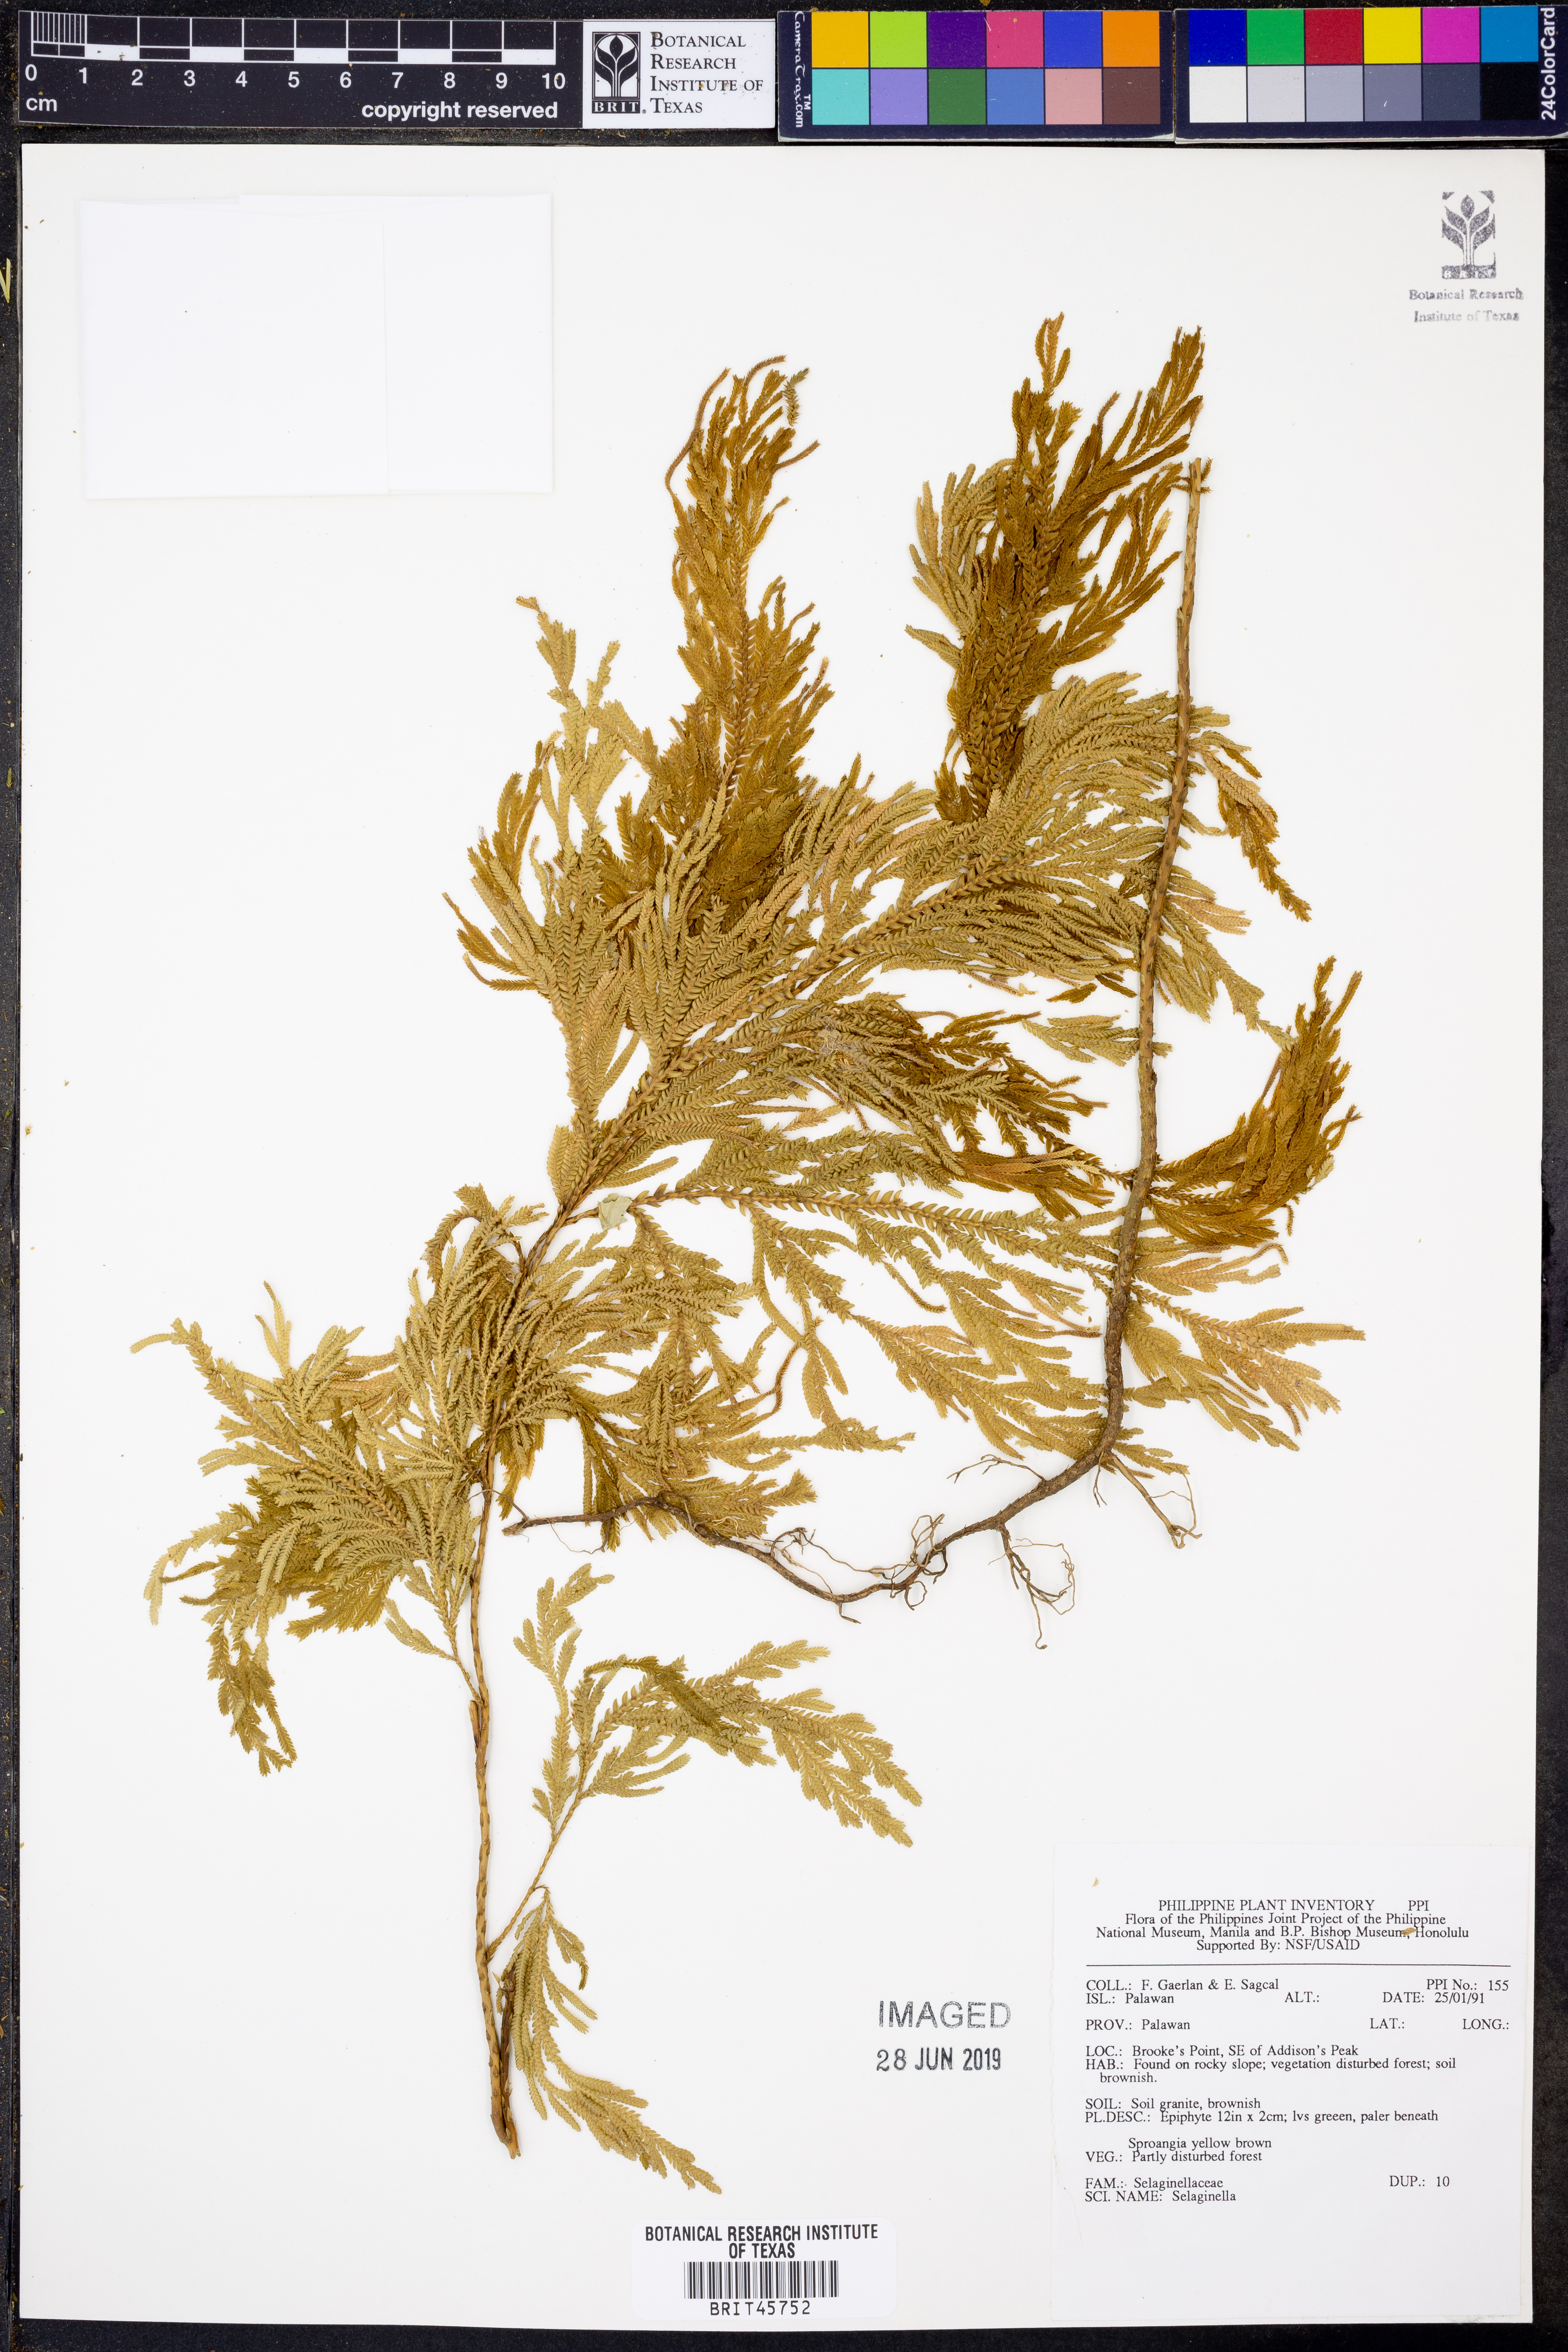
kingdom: Plantae
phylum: Tracheophyta
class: Lycopodiopsida
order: Selaginellales
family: Selaginellaceae
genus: Selaginella
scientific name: Selaginella
